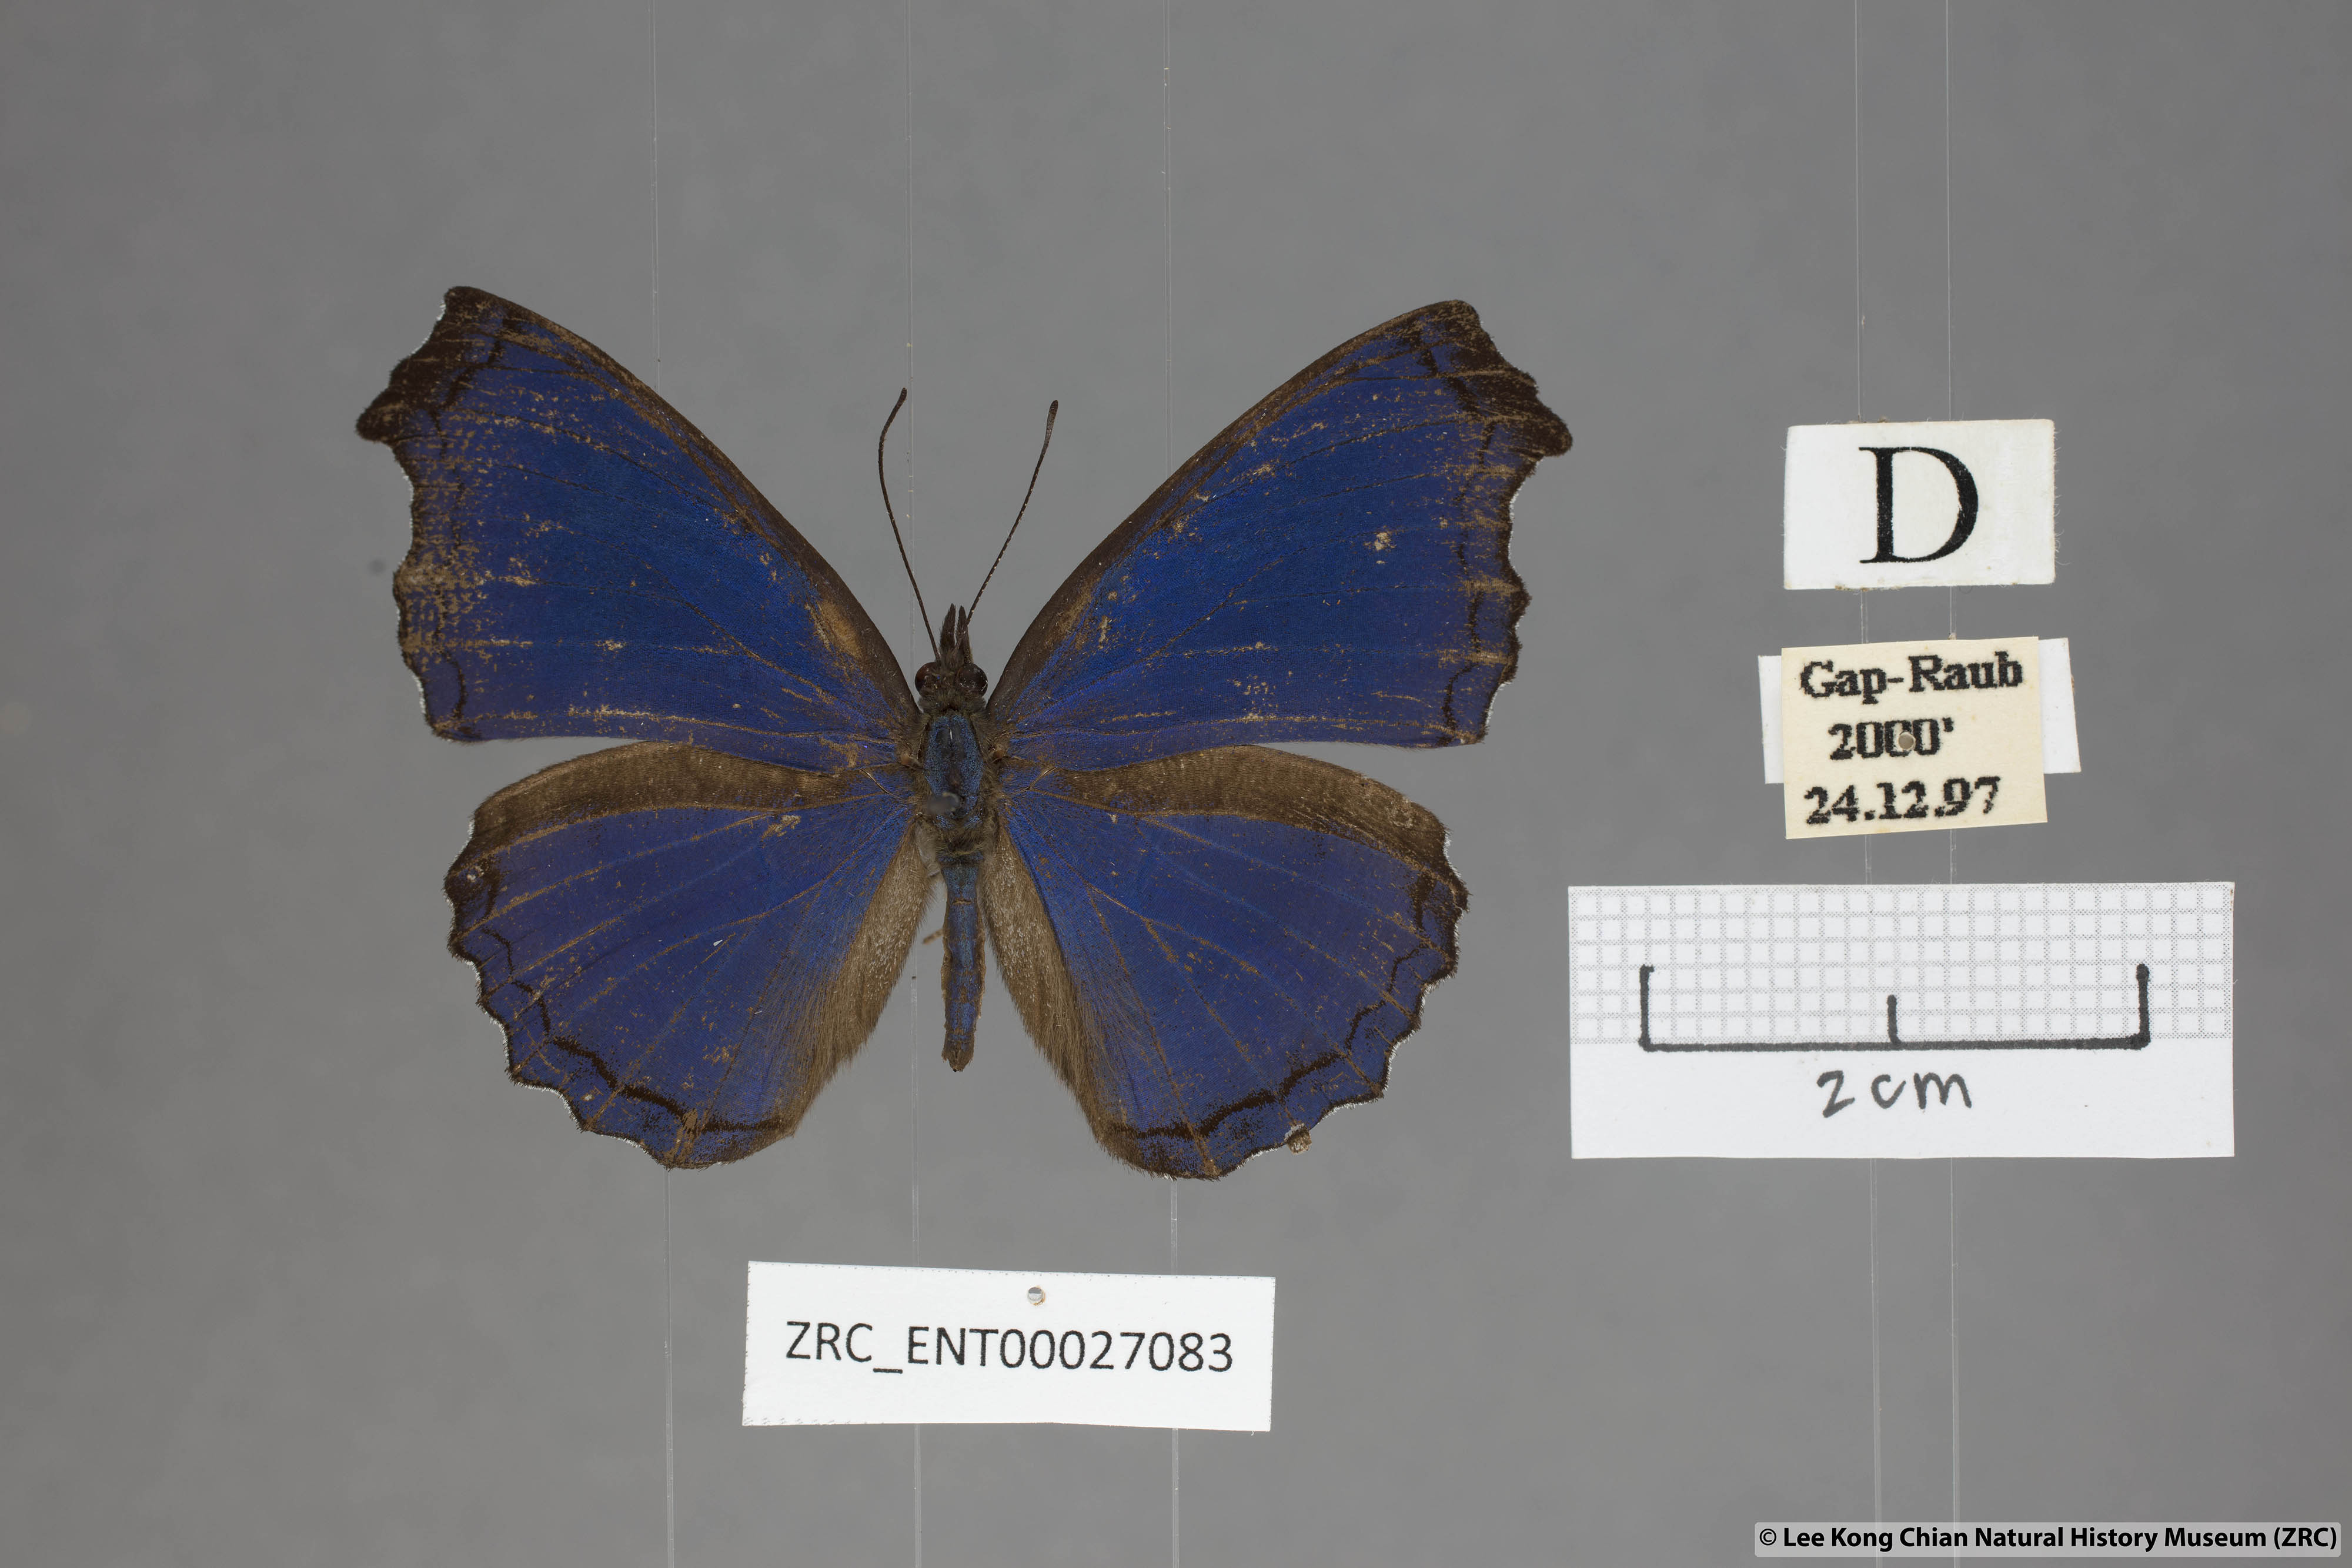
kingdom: Animalia
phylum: Arthropoda
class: Insecta
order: Lepidoptera
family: Nymphalidae
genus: Laringa
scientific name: Laringa castelnaui
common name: Blue dandy
